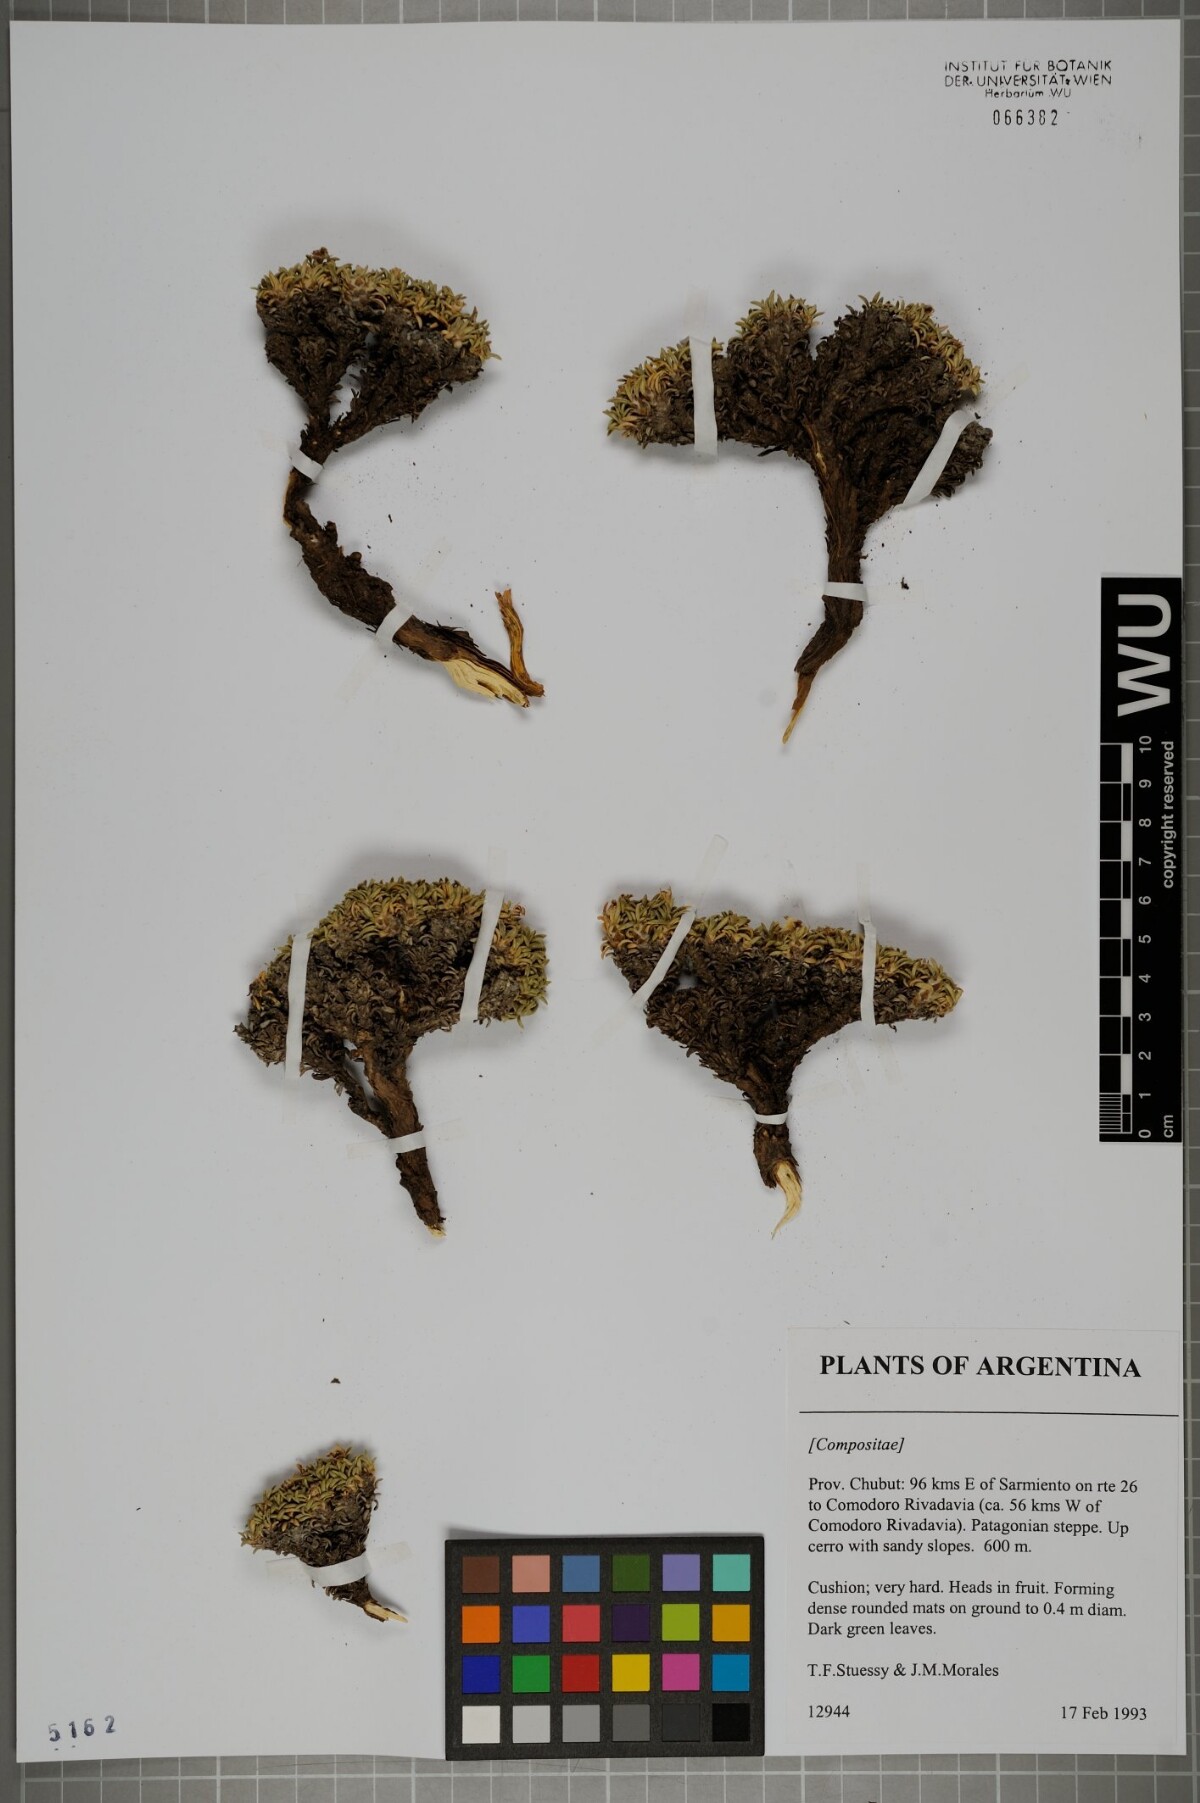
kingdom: Plantae
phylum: Tracheophyta
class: Magnoliopsida
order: Asterales
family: Asteraceae
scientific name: Asteraceae
